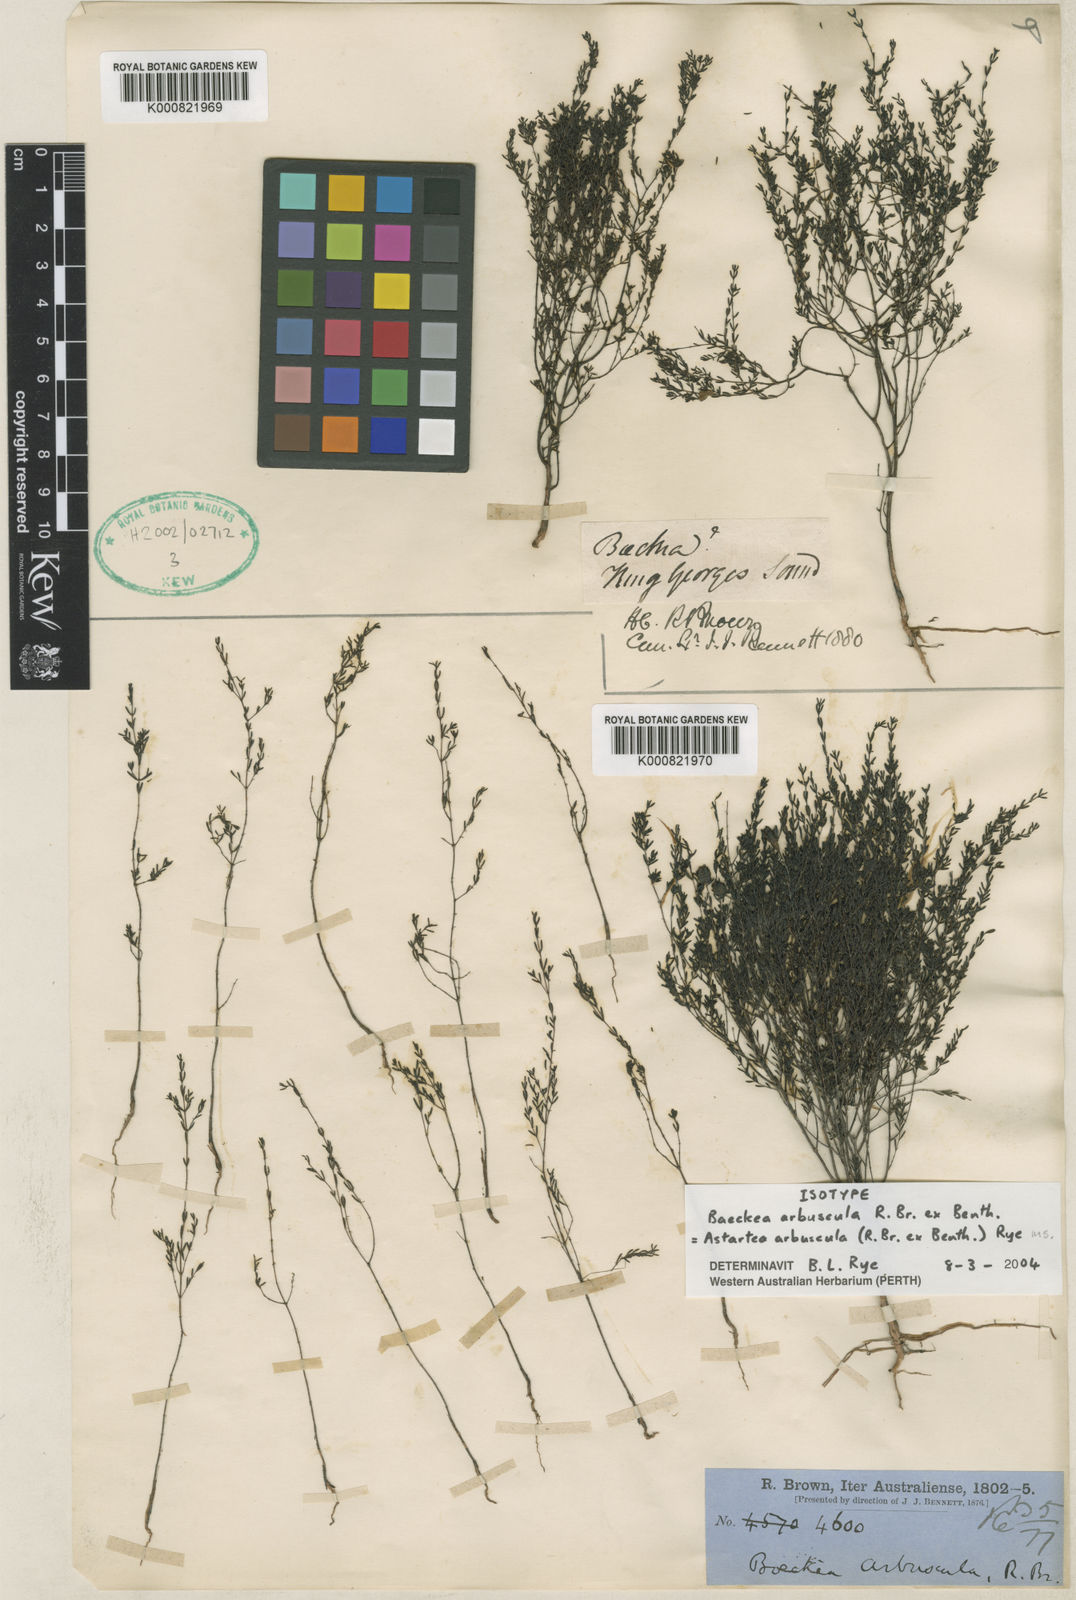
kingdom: Plantae
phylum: Tracheophyta
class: Magnoliopsida
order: Myrtales
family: Myrtaceae
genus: Astartea
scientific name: Astartea arbuscula
